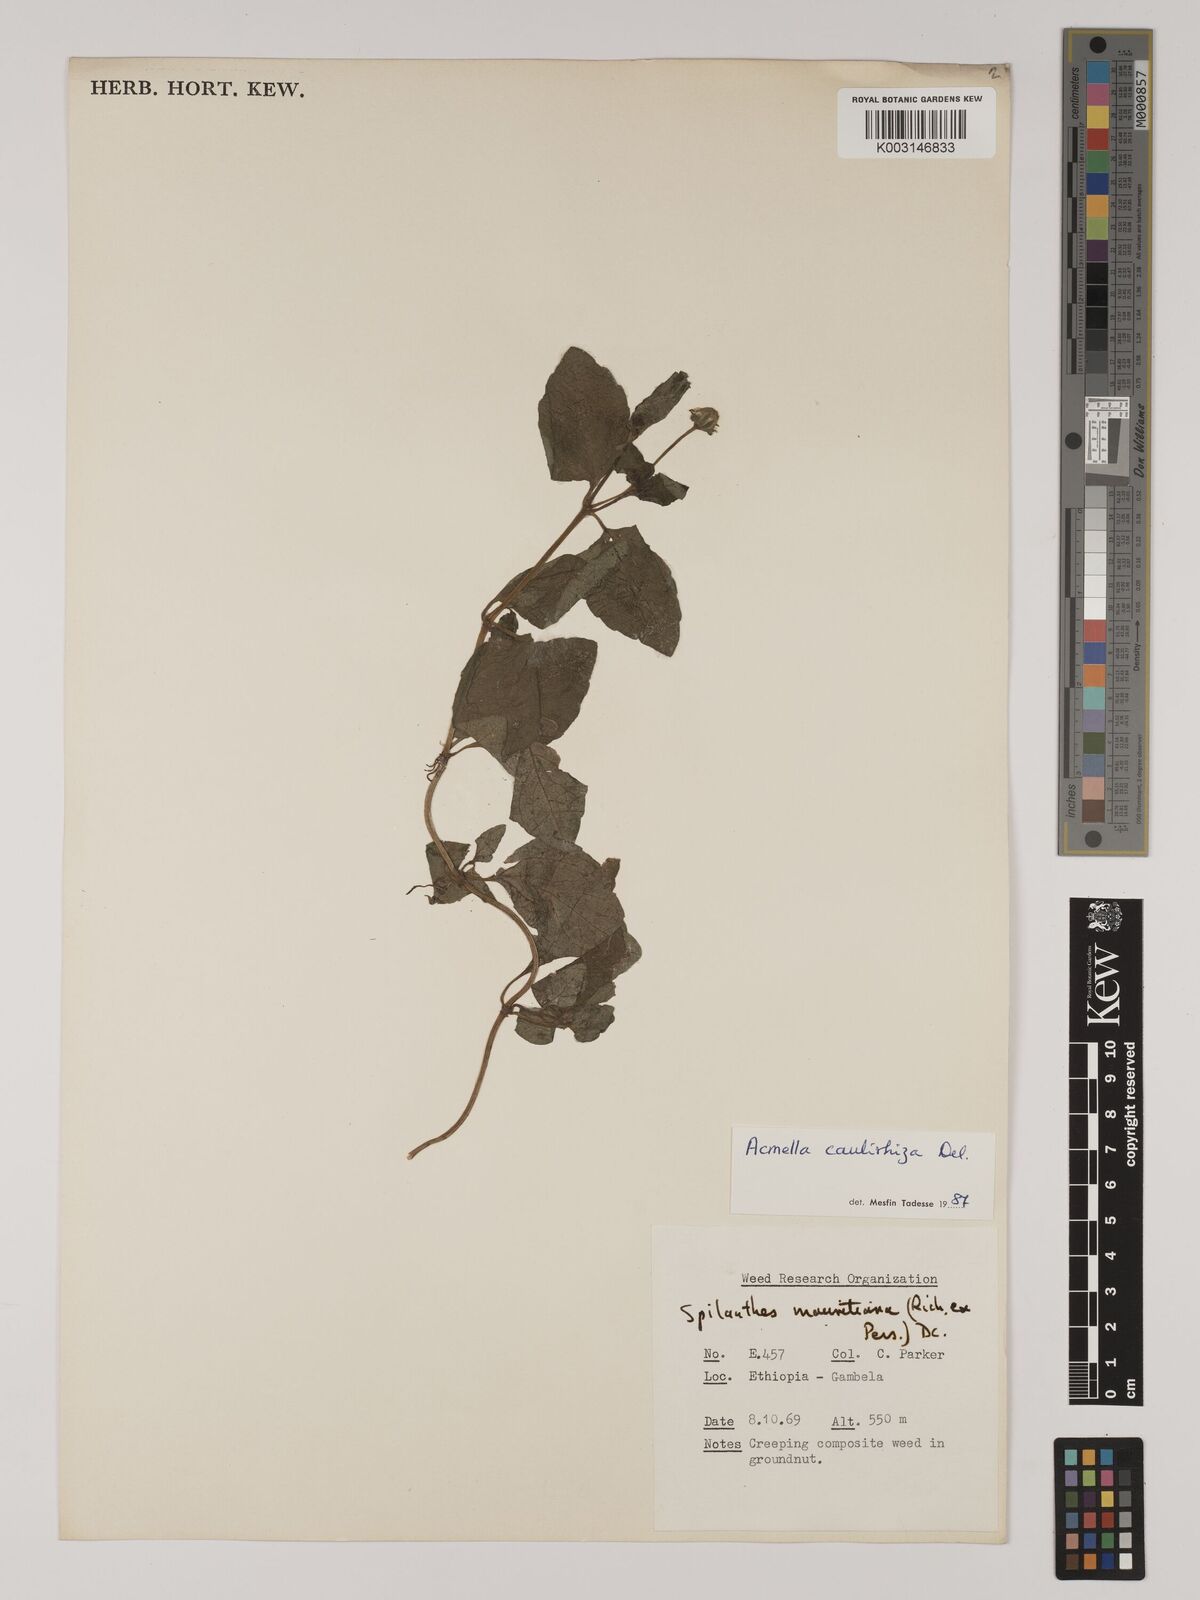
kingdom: Plantae
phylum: Tracheophyta
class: Magnoliopsida
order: Asterales
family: Asteraceae
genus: Acmella
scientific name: Acmella caulirhiza
